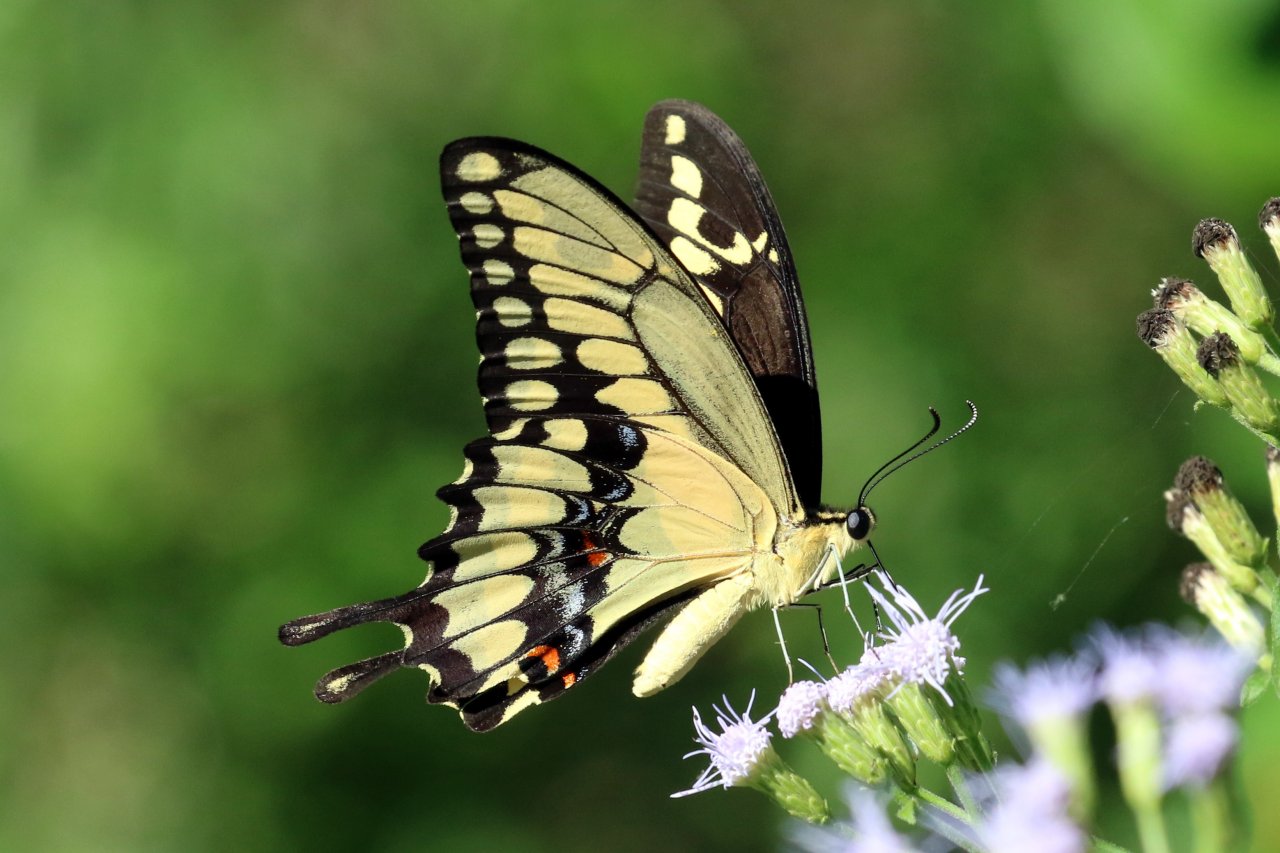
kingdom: Animalia
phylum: Arthropoda
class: Insecta
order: Lepidoptera
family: Papilionidae
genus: Papilio
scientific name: Papilio rumiko
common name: Western Giant Swallowtail
